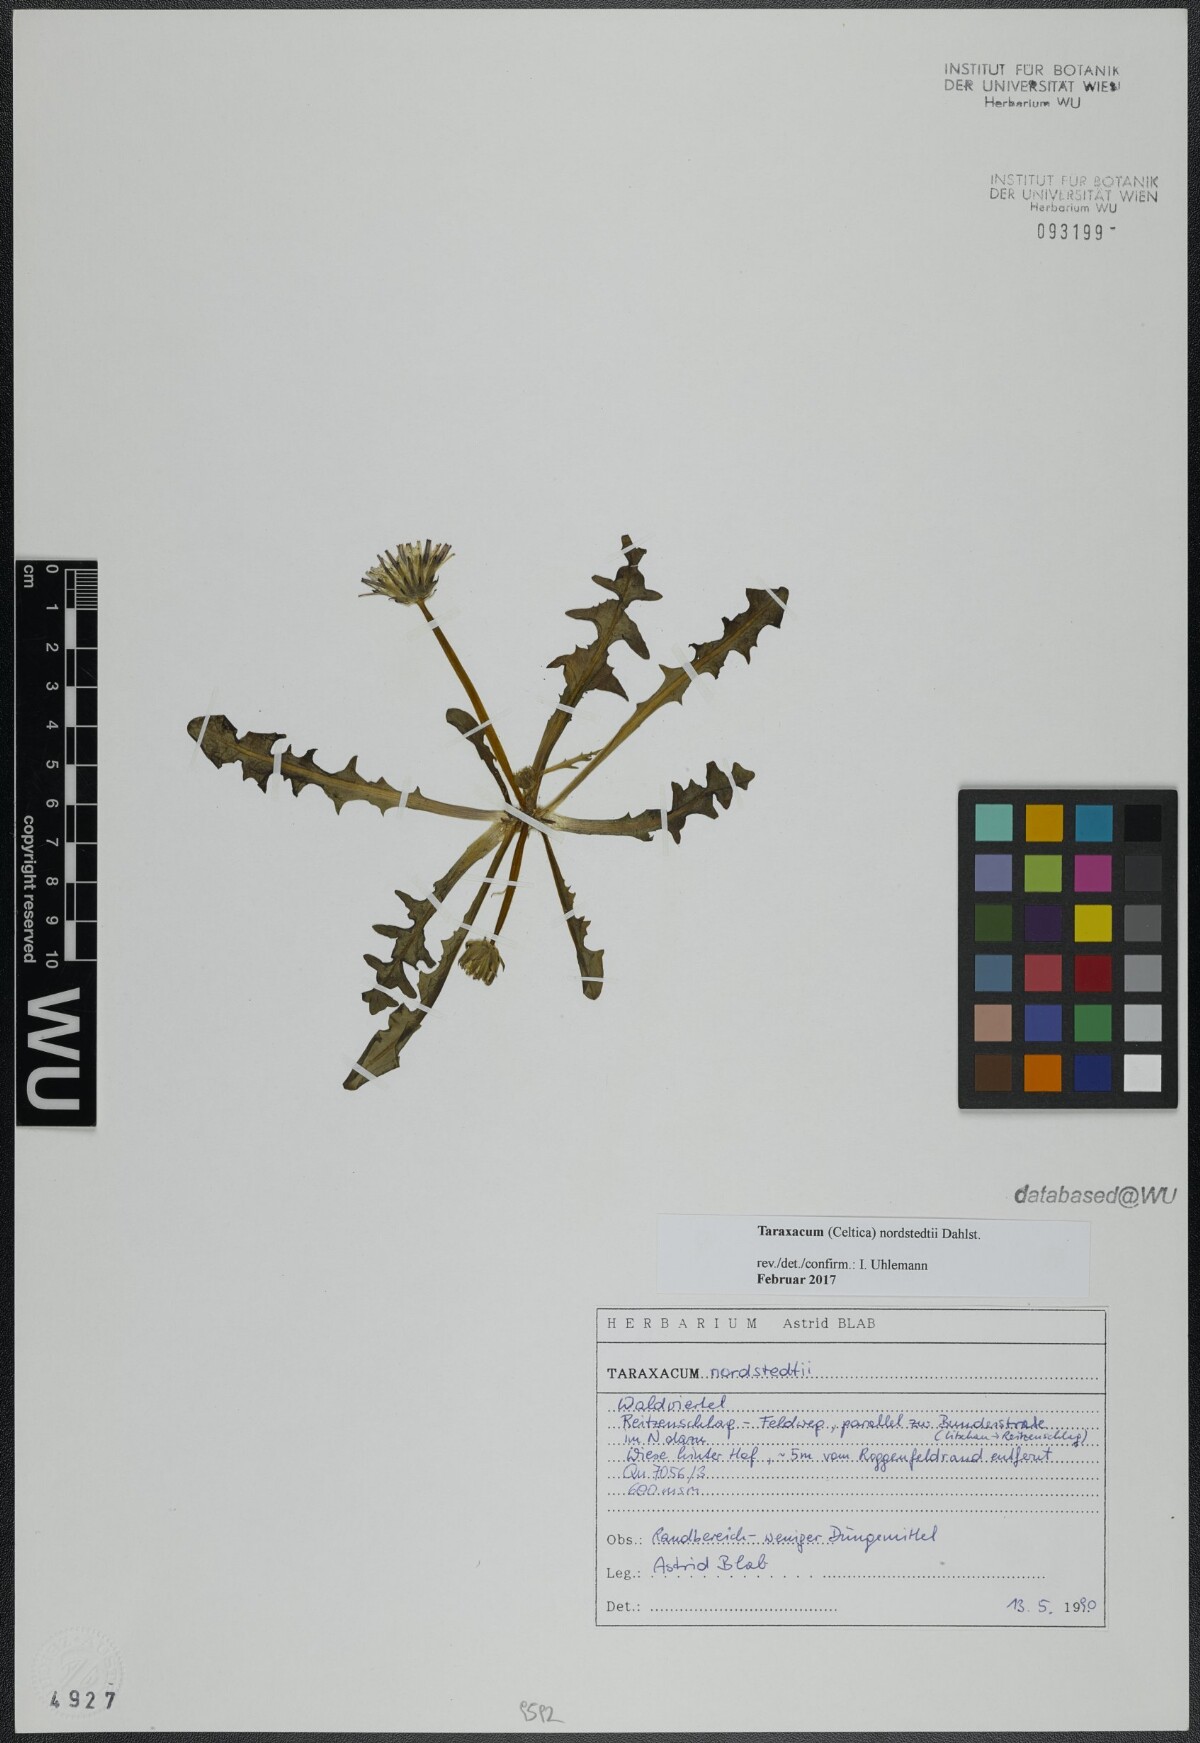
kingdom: Plantae
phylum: Tracheophyta
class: Magnoliopsida
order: Asterales
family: Asteraceae
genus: Taraxacum
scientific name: Taraxacum nordstedtii
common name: Nordstedt's dandelion
